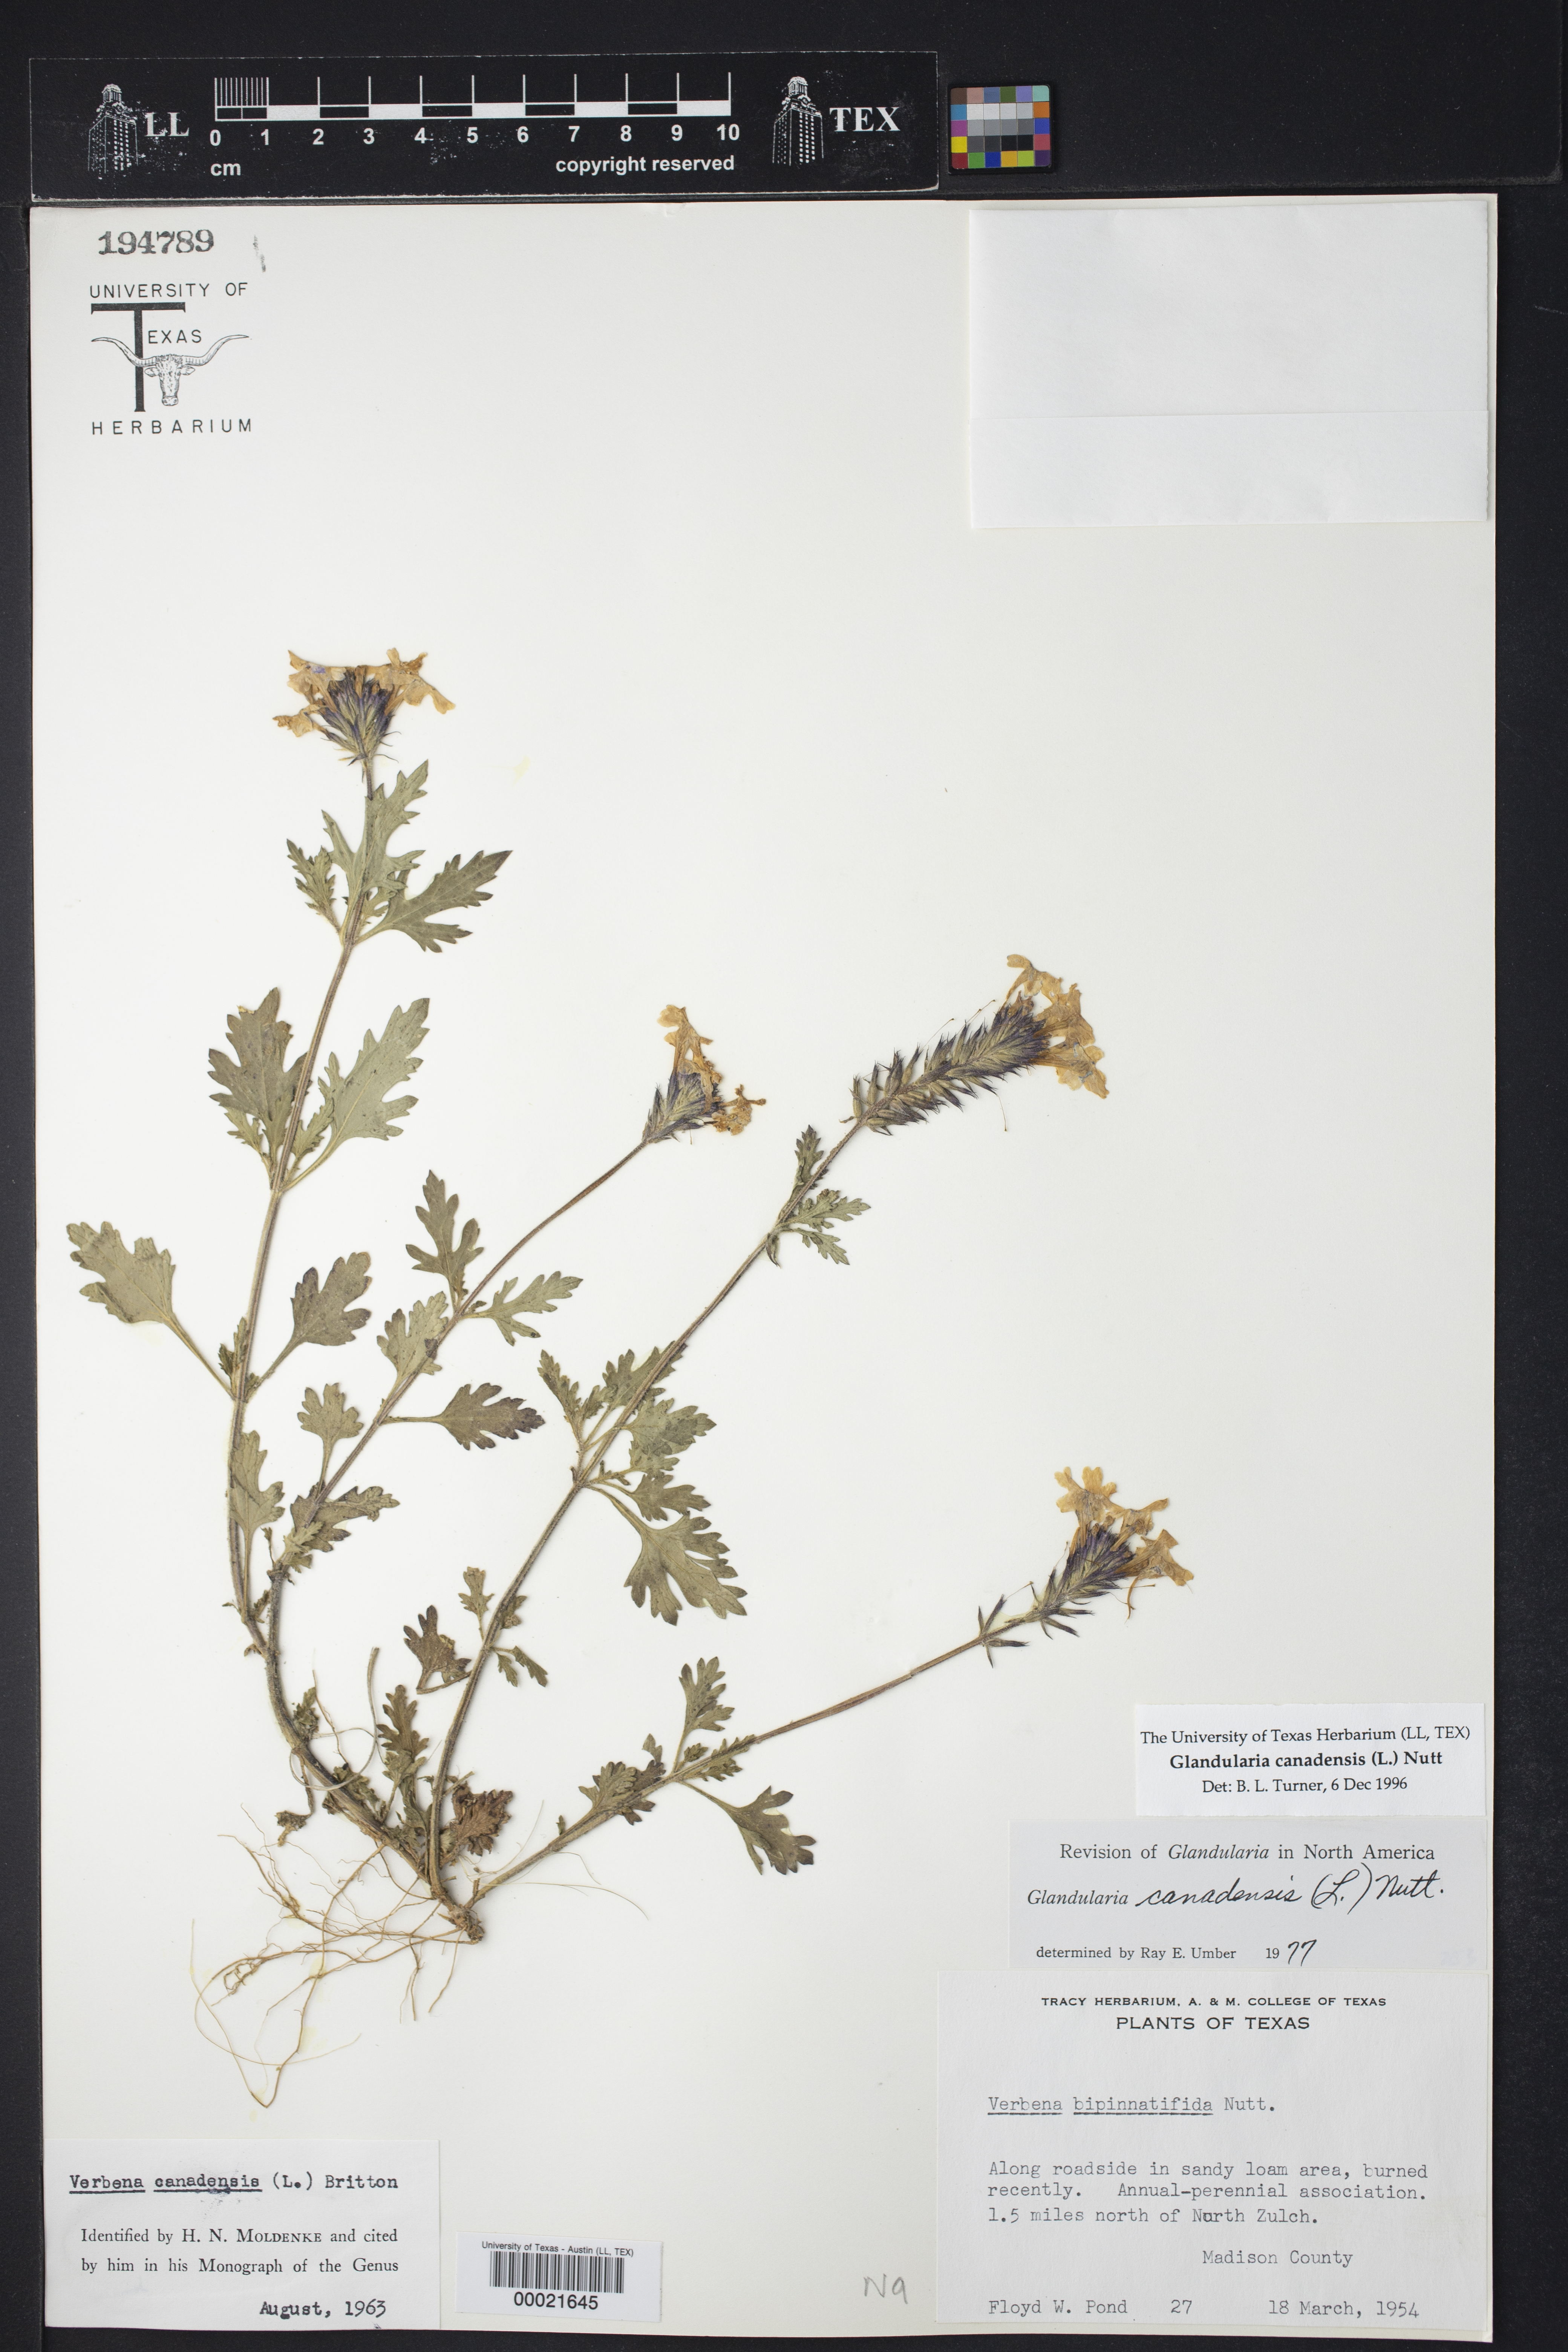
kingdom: Plantae
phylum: Tracheophyta
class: Magnoliopsida
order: Lamiales
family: Verbenaceae
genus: Verbena
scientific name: Verbena canadensis
